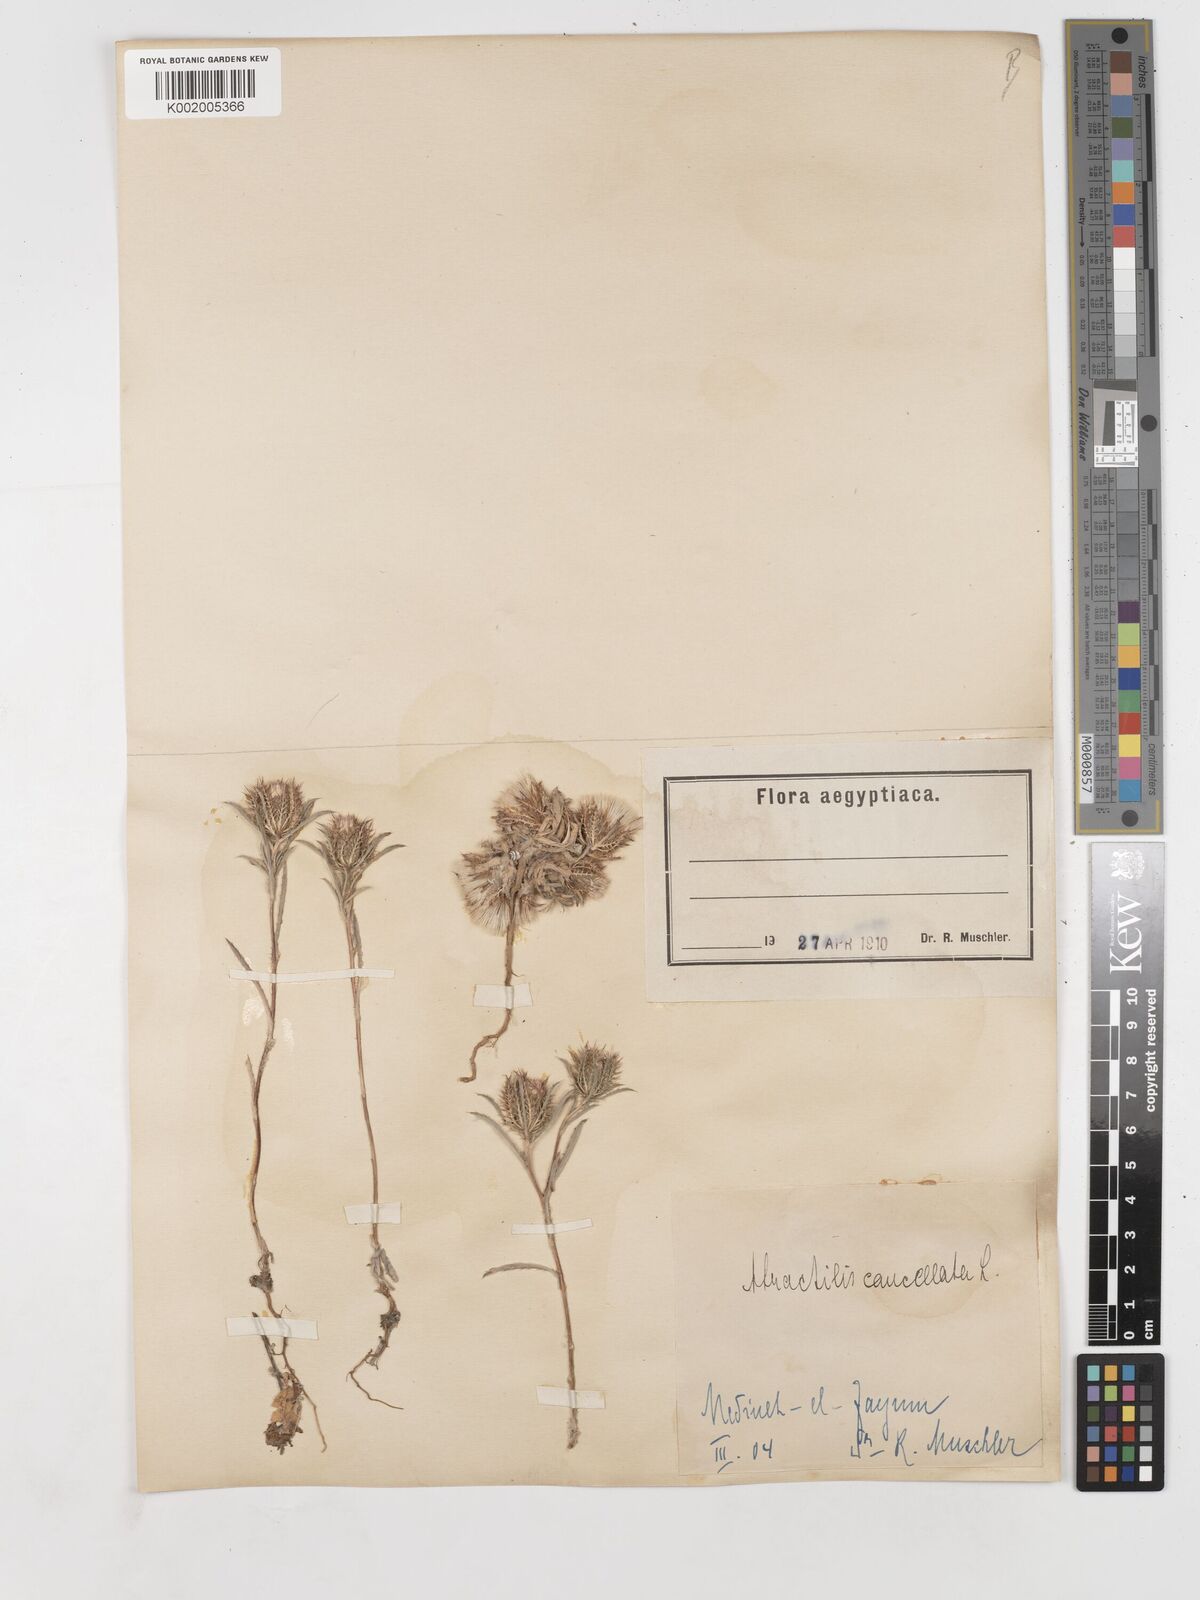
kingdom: Plantae
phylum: Tracheophyta
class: Magnoliopsida
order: Asterales
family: Asteraceae
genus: Atractylis
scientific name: Atractylis cancellata
